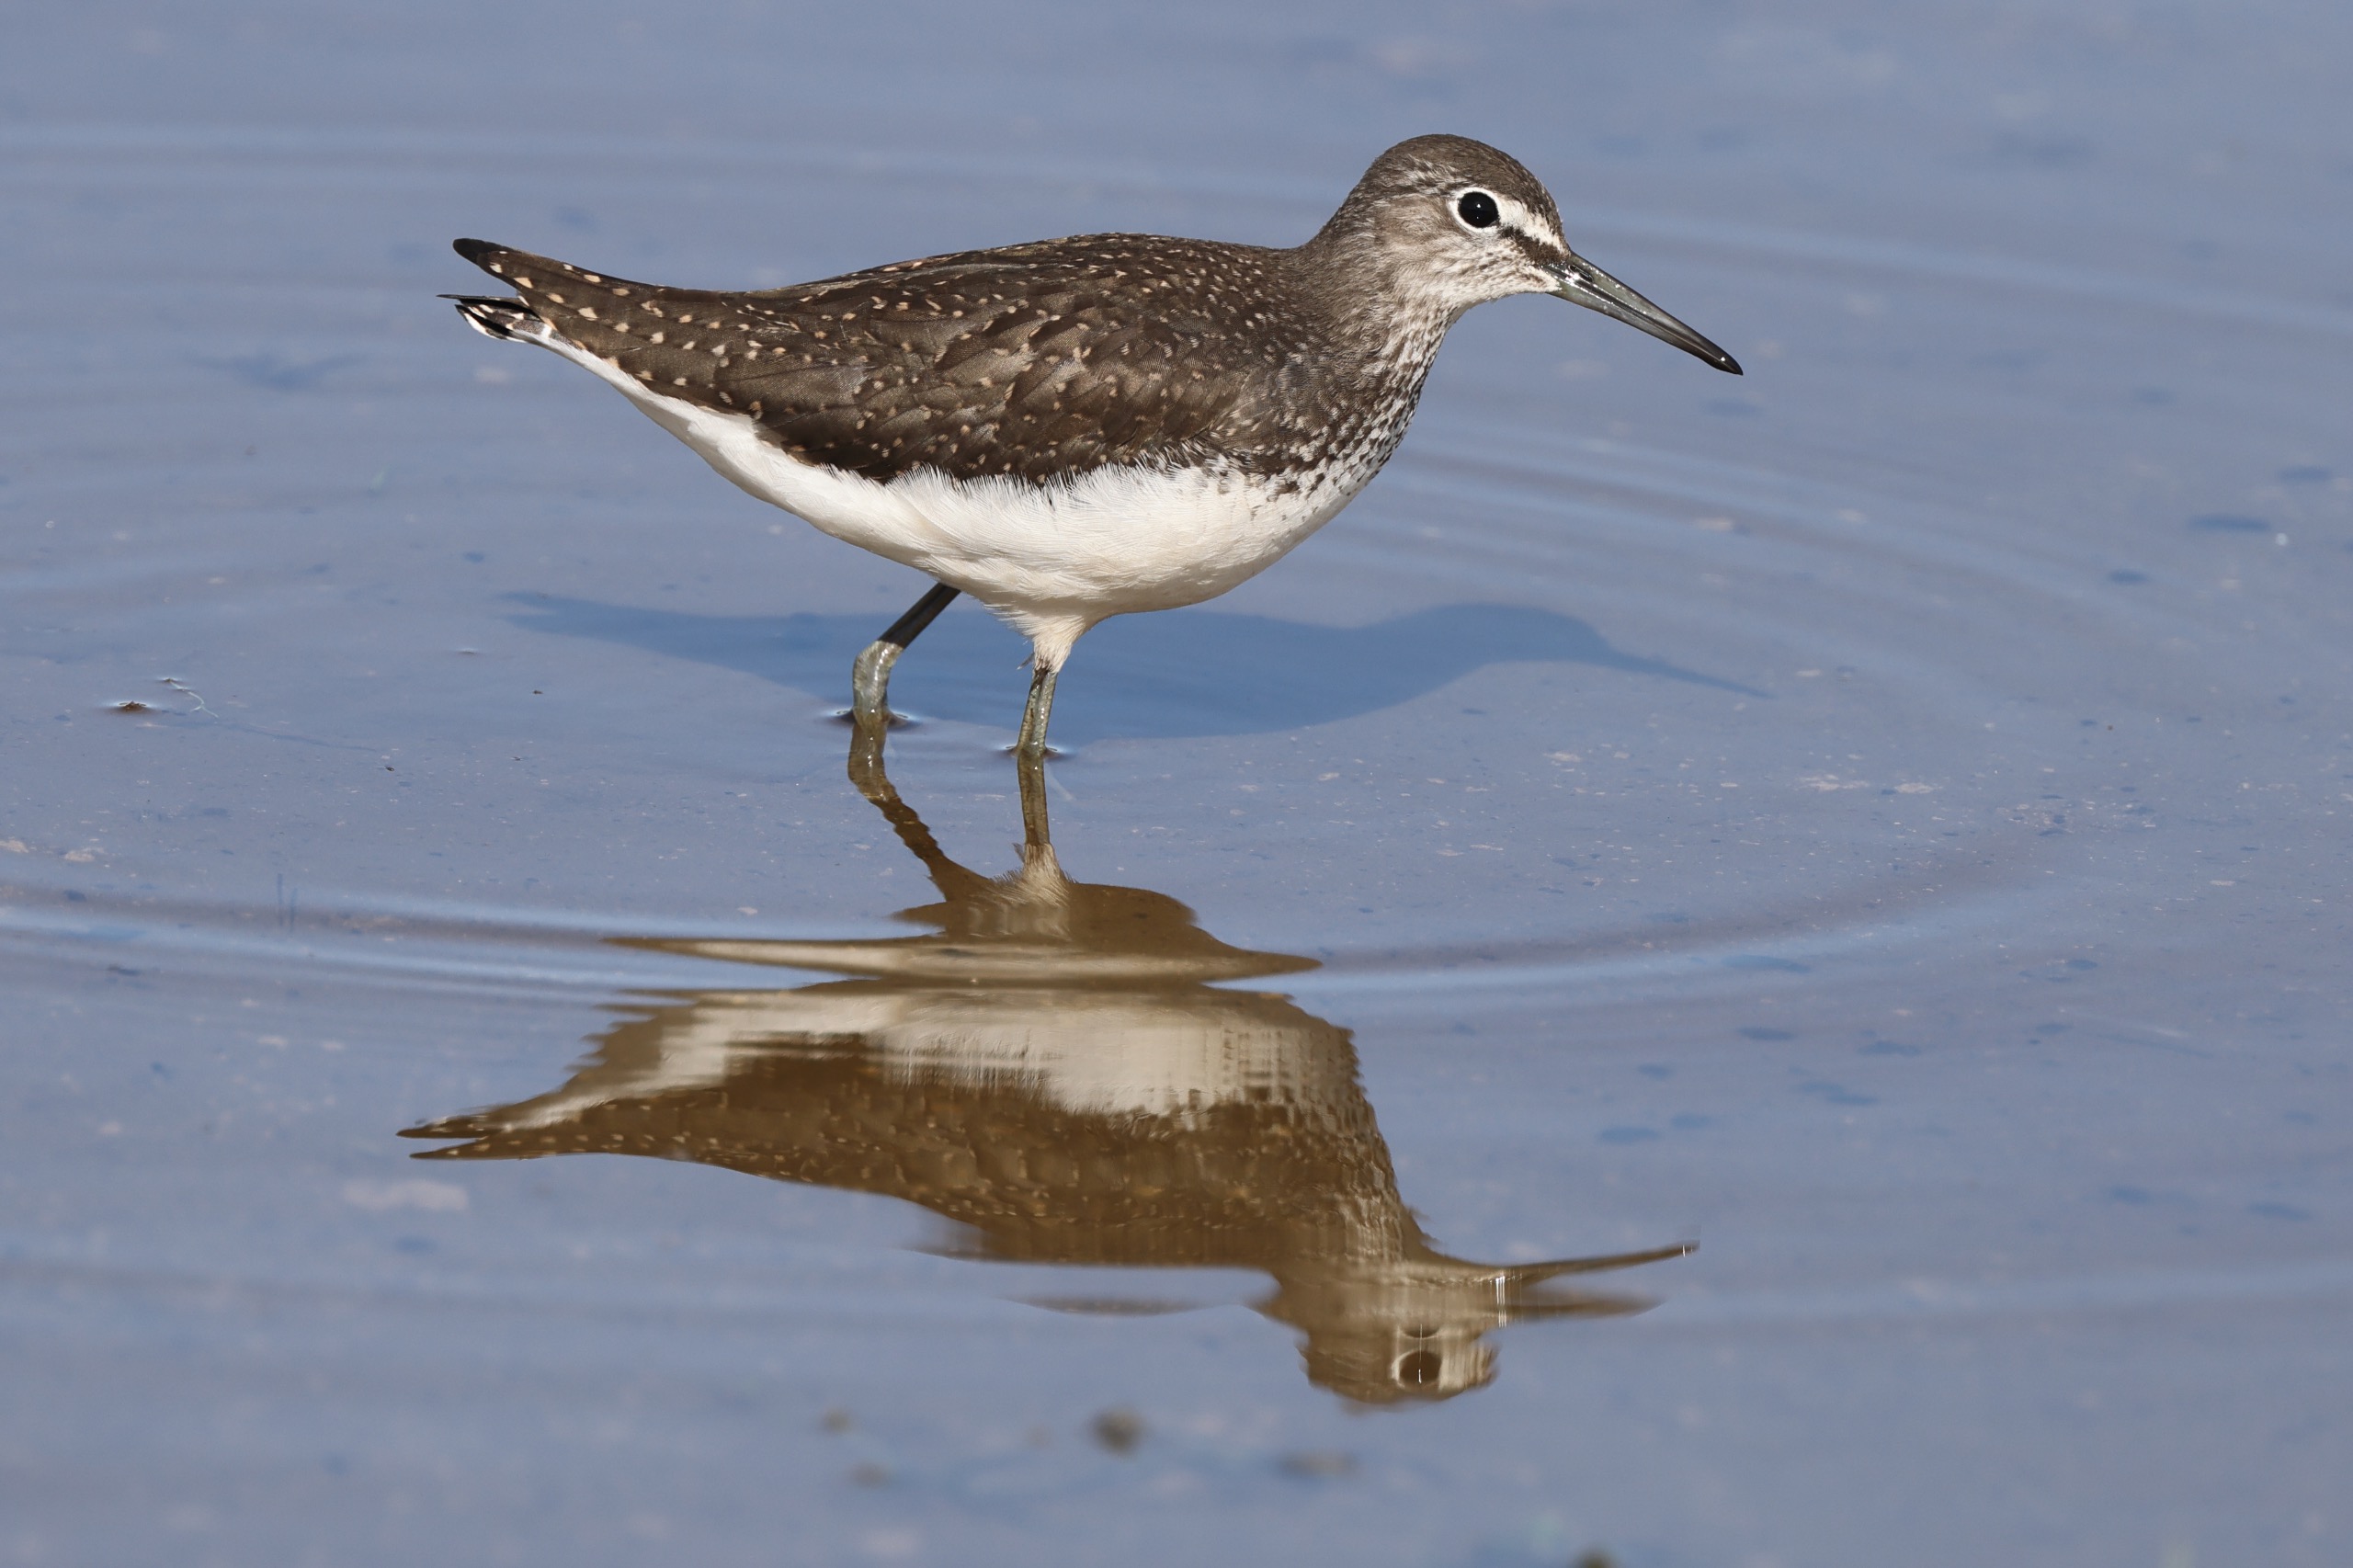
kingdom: Animalia
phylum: Chordata
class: Aves
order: Charadriiformes
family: Scolopacidae
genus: Tringa
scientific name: Tringa ochropus
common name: Svaleklire
